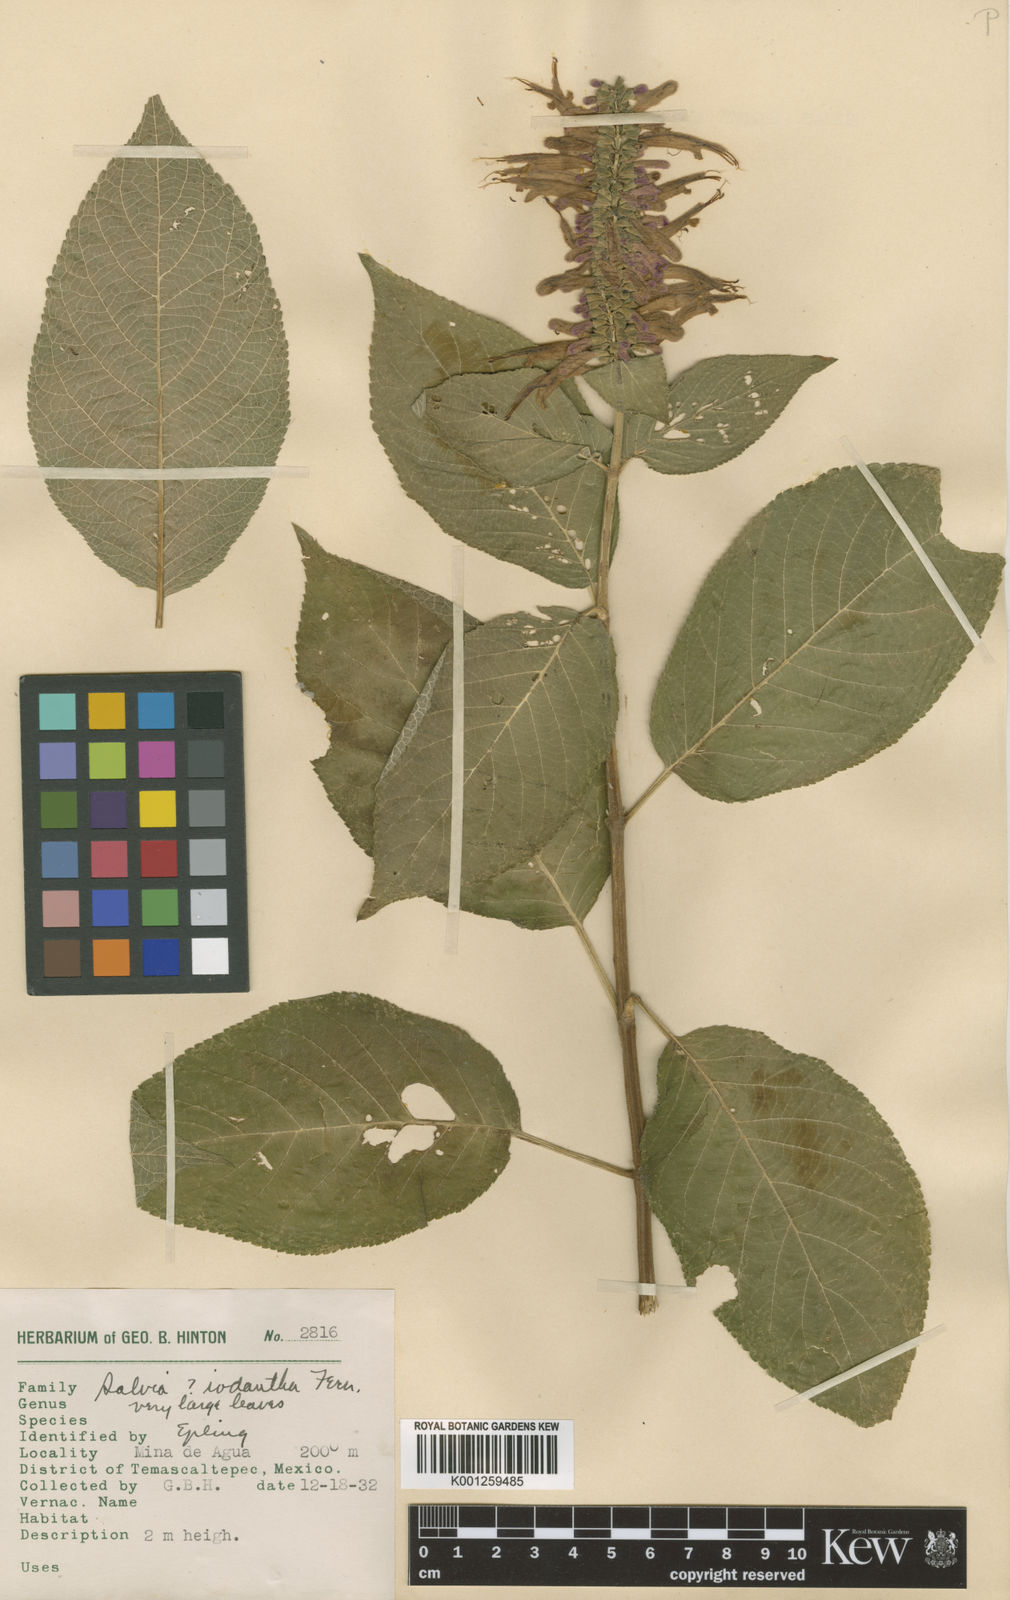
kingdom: Plantae
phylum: Tracheophyta
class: Magnoliopsida
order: Lamiales
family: Lamiaceae
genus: Salvia
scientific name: Salvia iodantha
